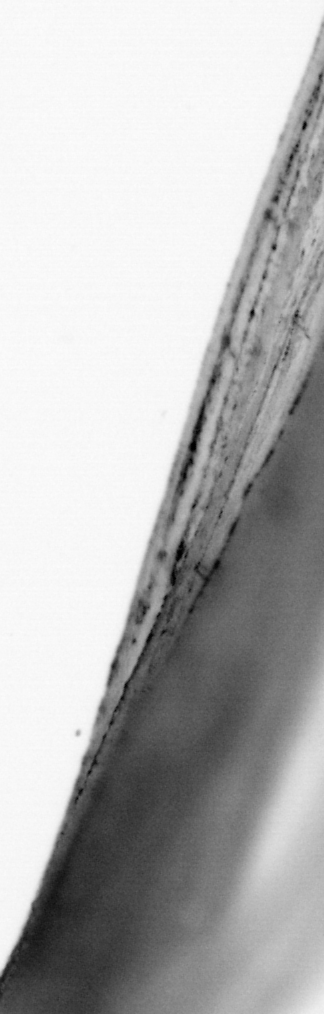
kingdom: Animalia
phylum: Chordata
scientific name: Chordata
